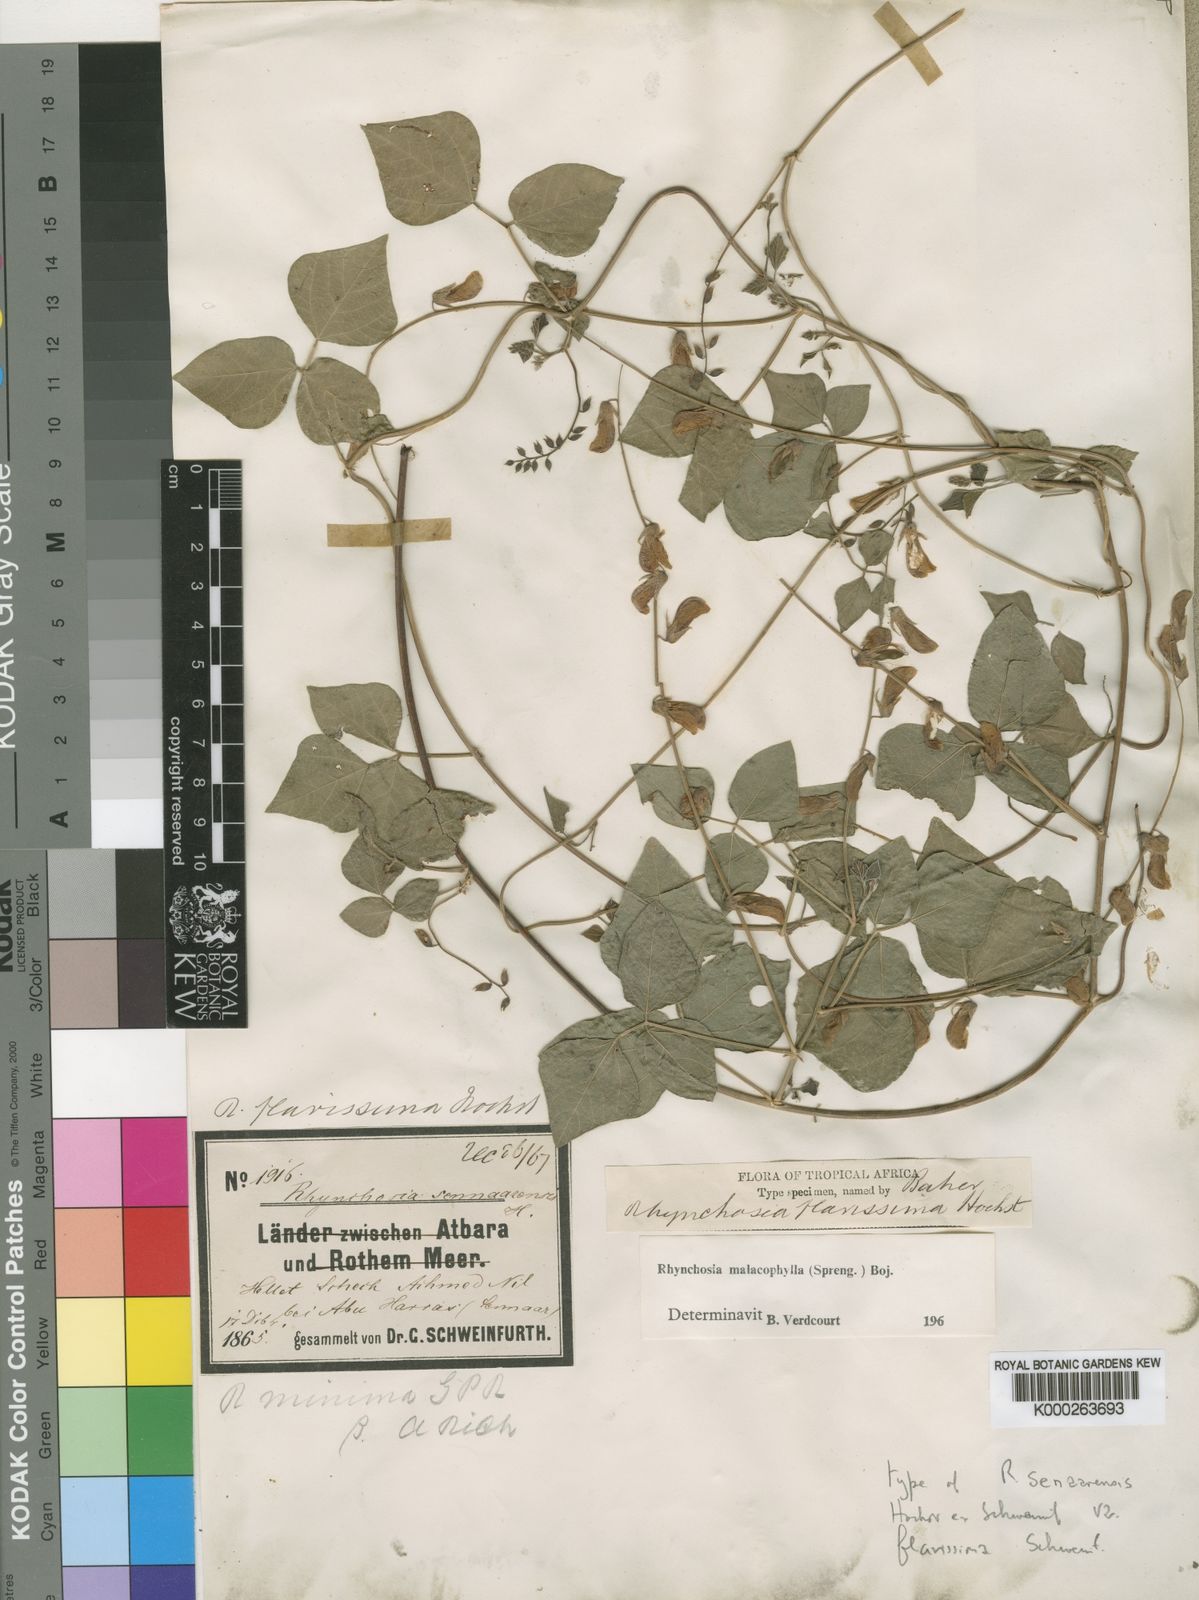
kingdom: Plantae
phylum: Tracheophyta
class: Magnoliopsida
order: Fabales
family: Fabaceae
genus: Rhynchosia
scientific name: Rhynchosia malacophylla
